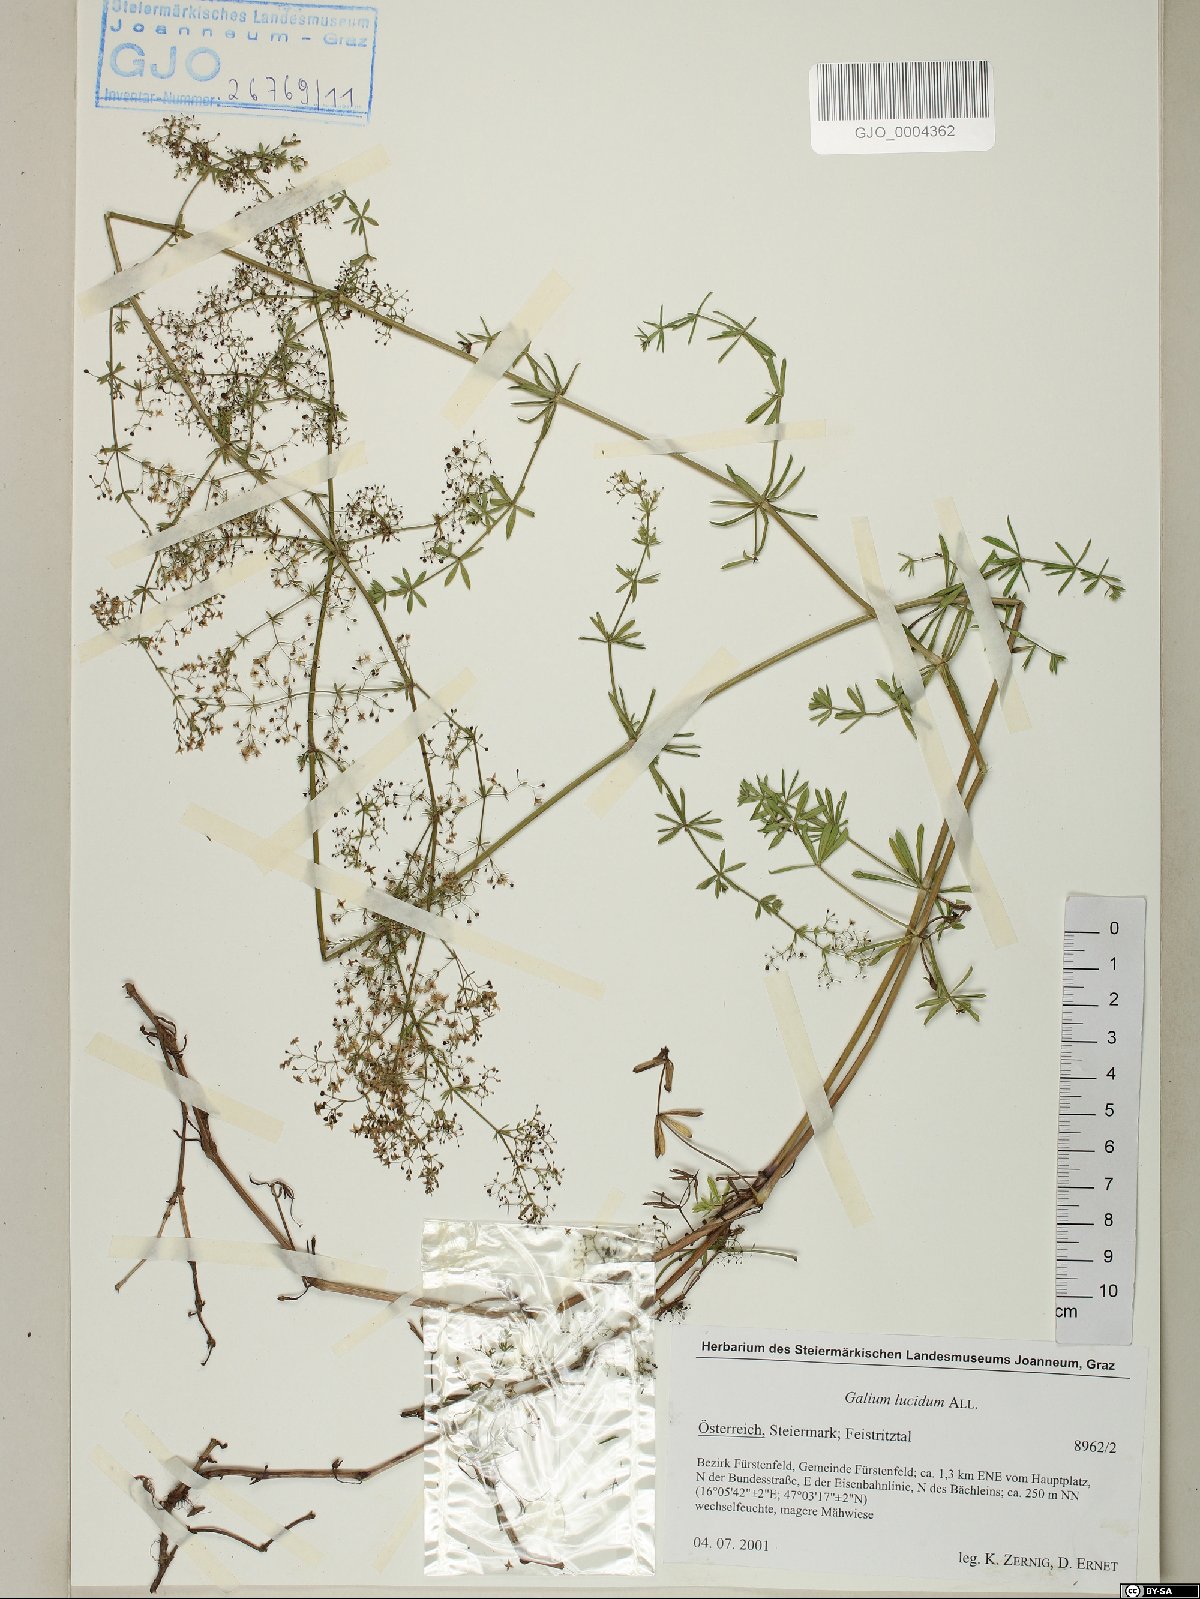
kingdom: Plantae
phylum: Tracheophyta
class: Magnoliopsida
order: Gentianales
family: Rubiaceae
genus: Galium
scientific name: Galium lucidum
